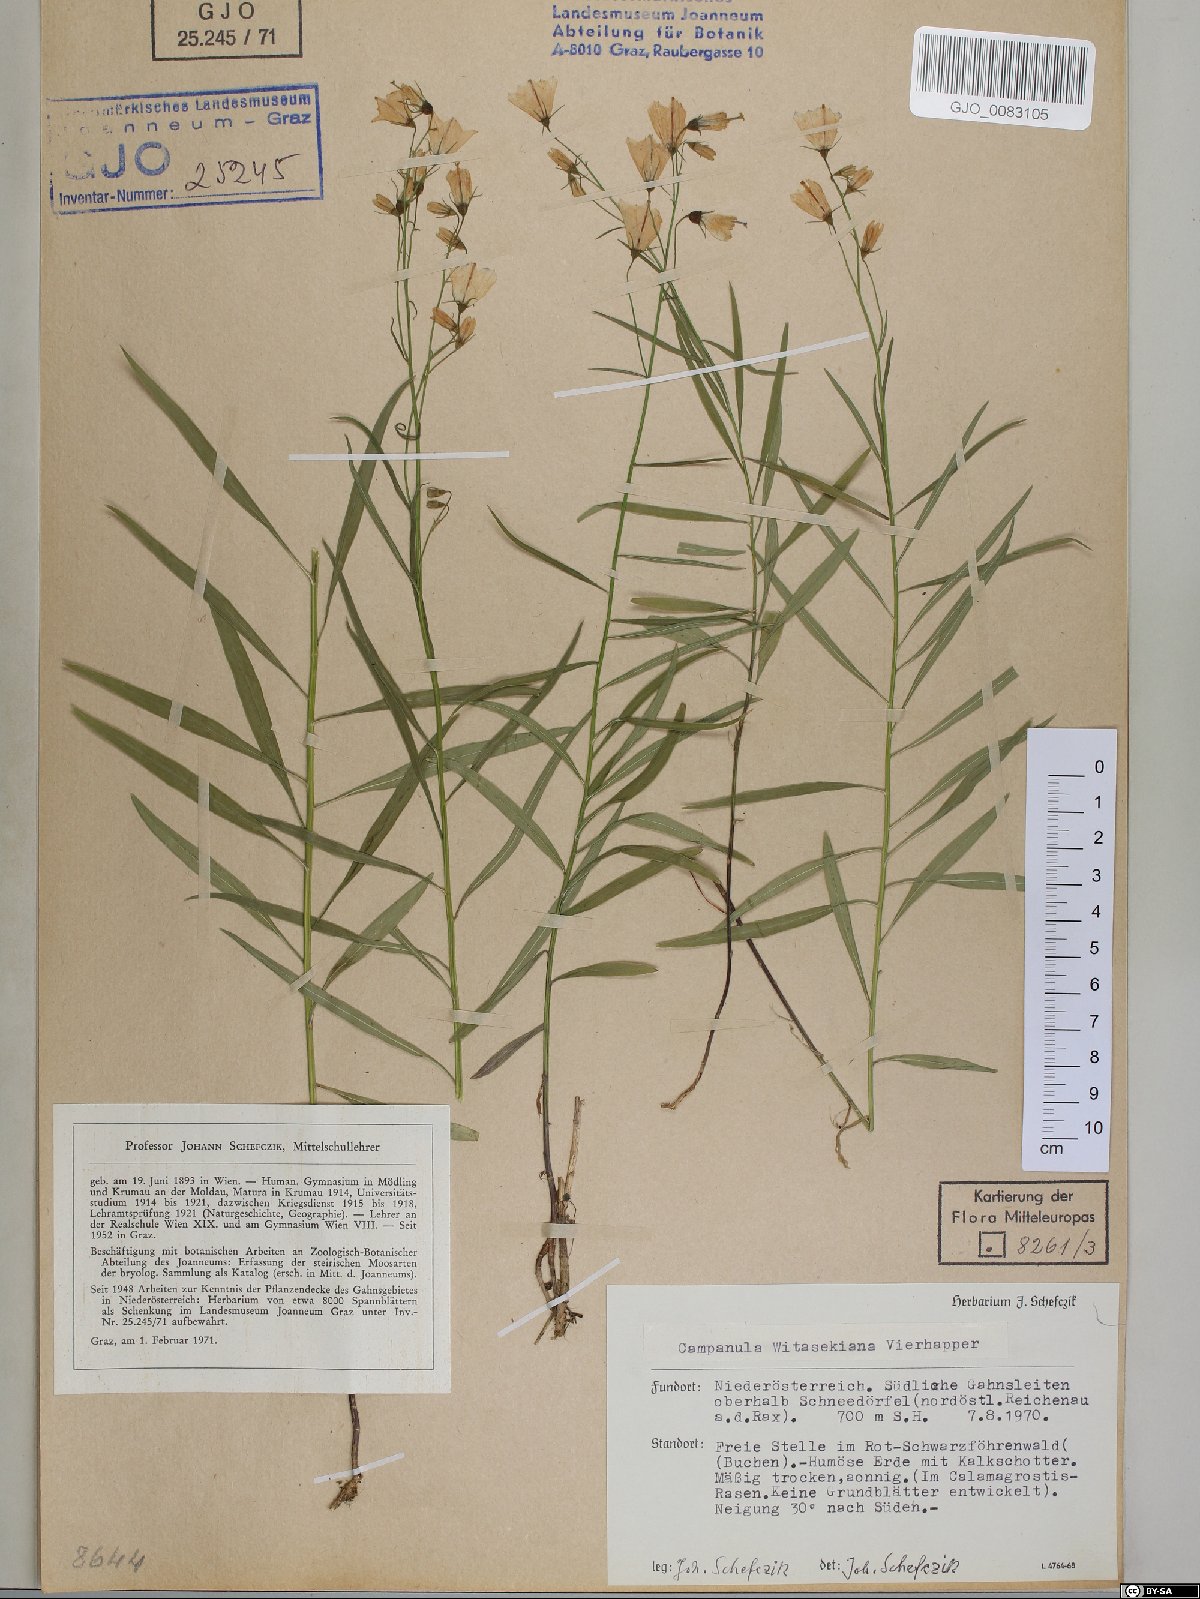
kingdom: Plantae
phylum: Tracheophyta
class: Magnoliopsida
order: Asterales
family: Campanulaceae
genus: Campanula
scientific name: Campanula witasekiana
